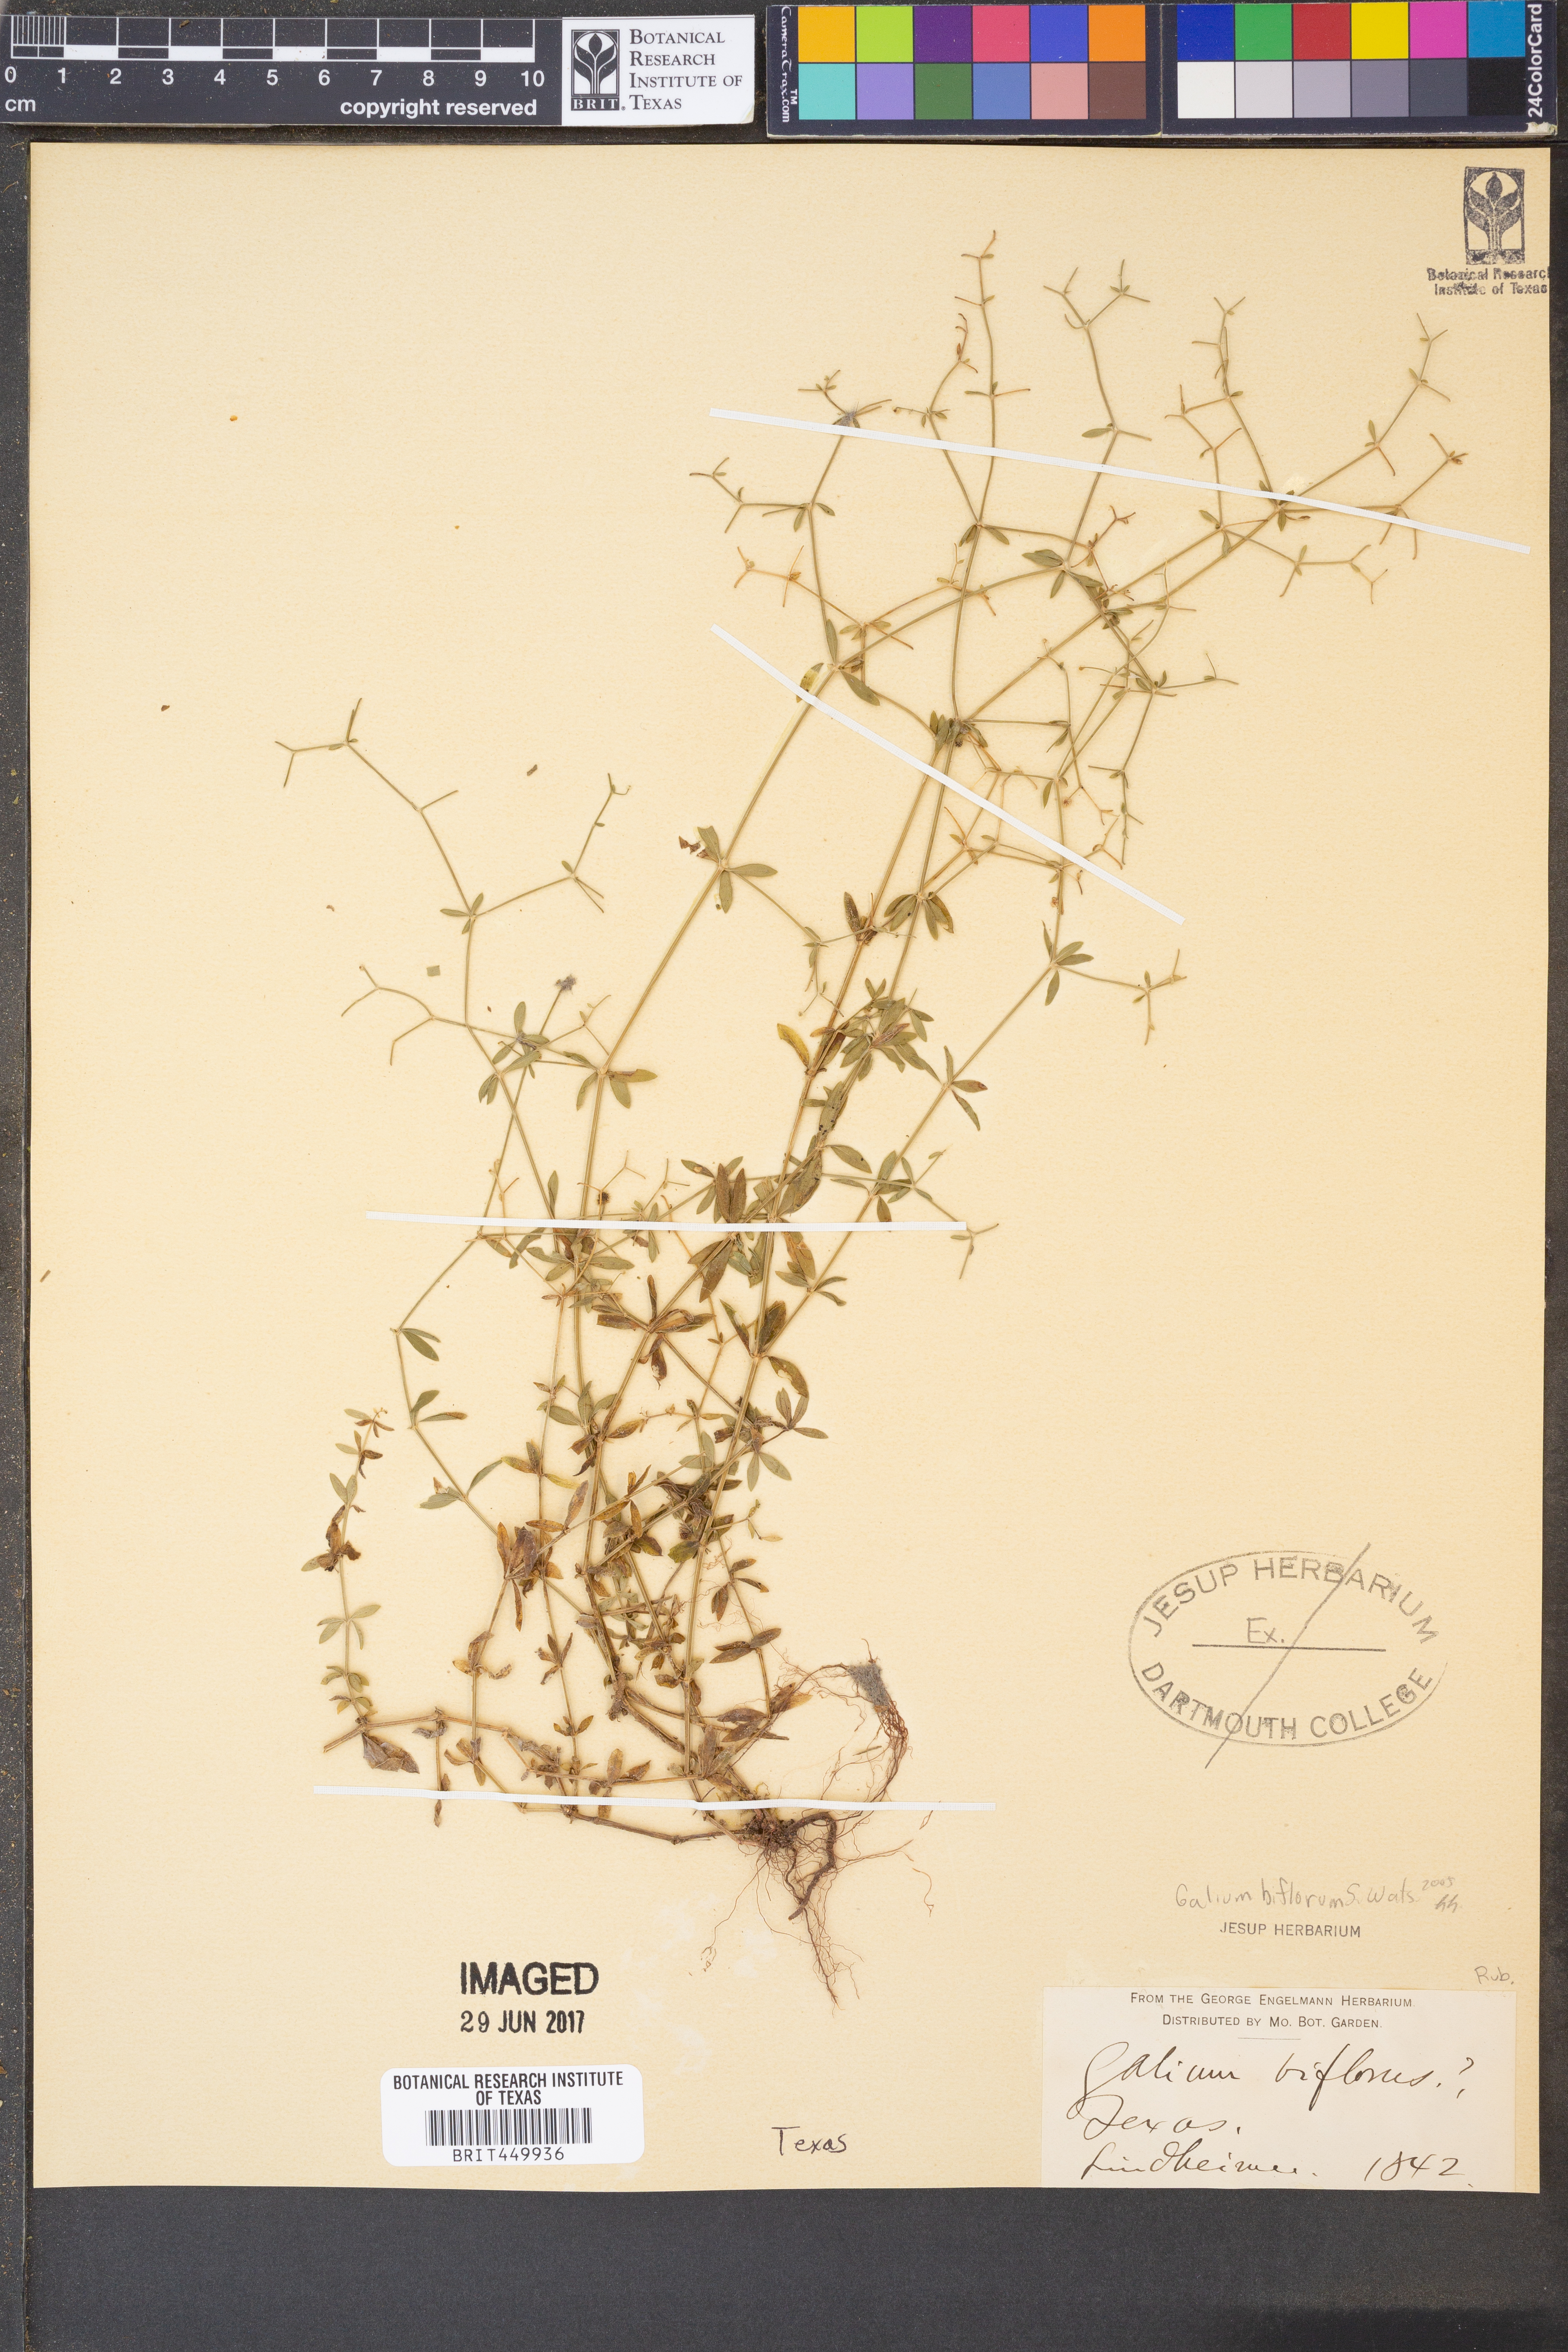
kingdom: Plantae
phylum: Tracheophyta
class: Magnoliopsida
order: Gentianales
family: Rubiaceae
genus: Galium
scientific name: Galium spurium
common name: False cleavers
